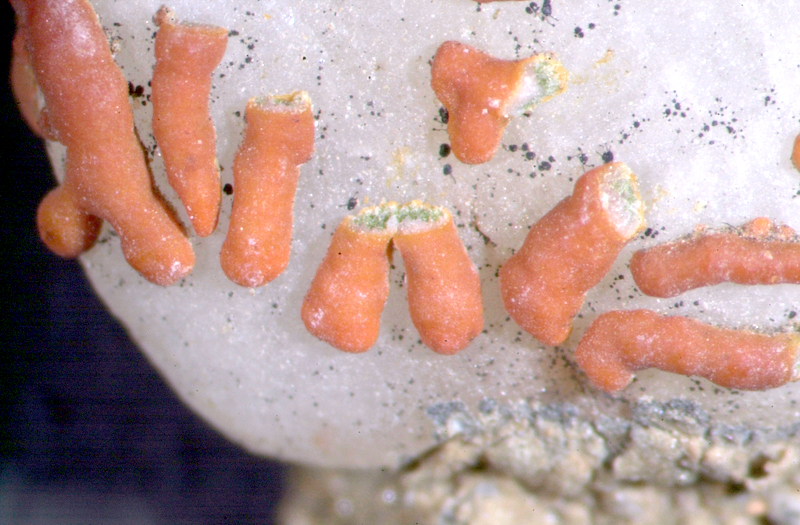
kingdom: Fungi
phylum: Ascomycota
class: Lecanoromycetes
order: Teloschistales
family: Teloschistaceae
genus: Stellarangia
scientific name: Stellarangia elegantissima
